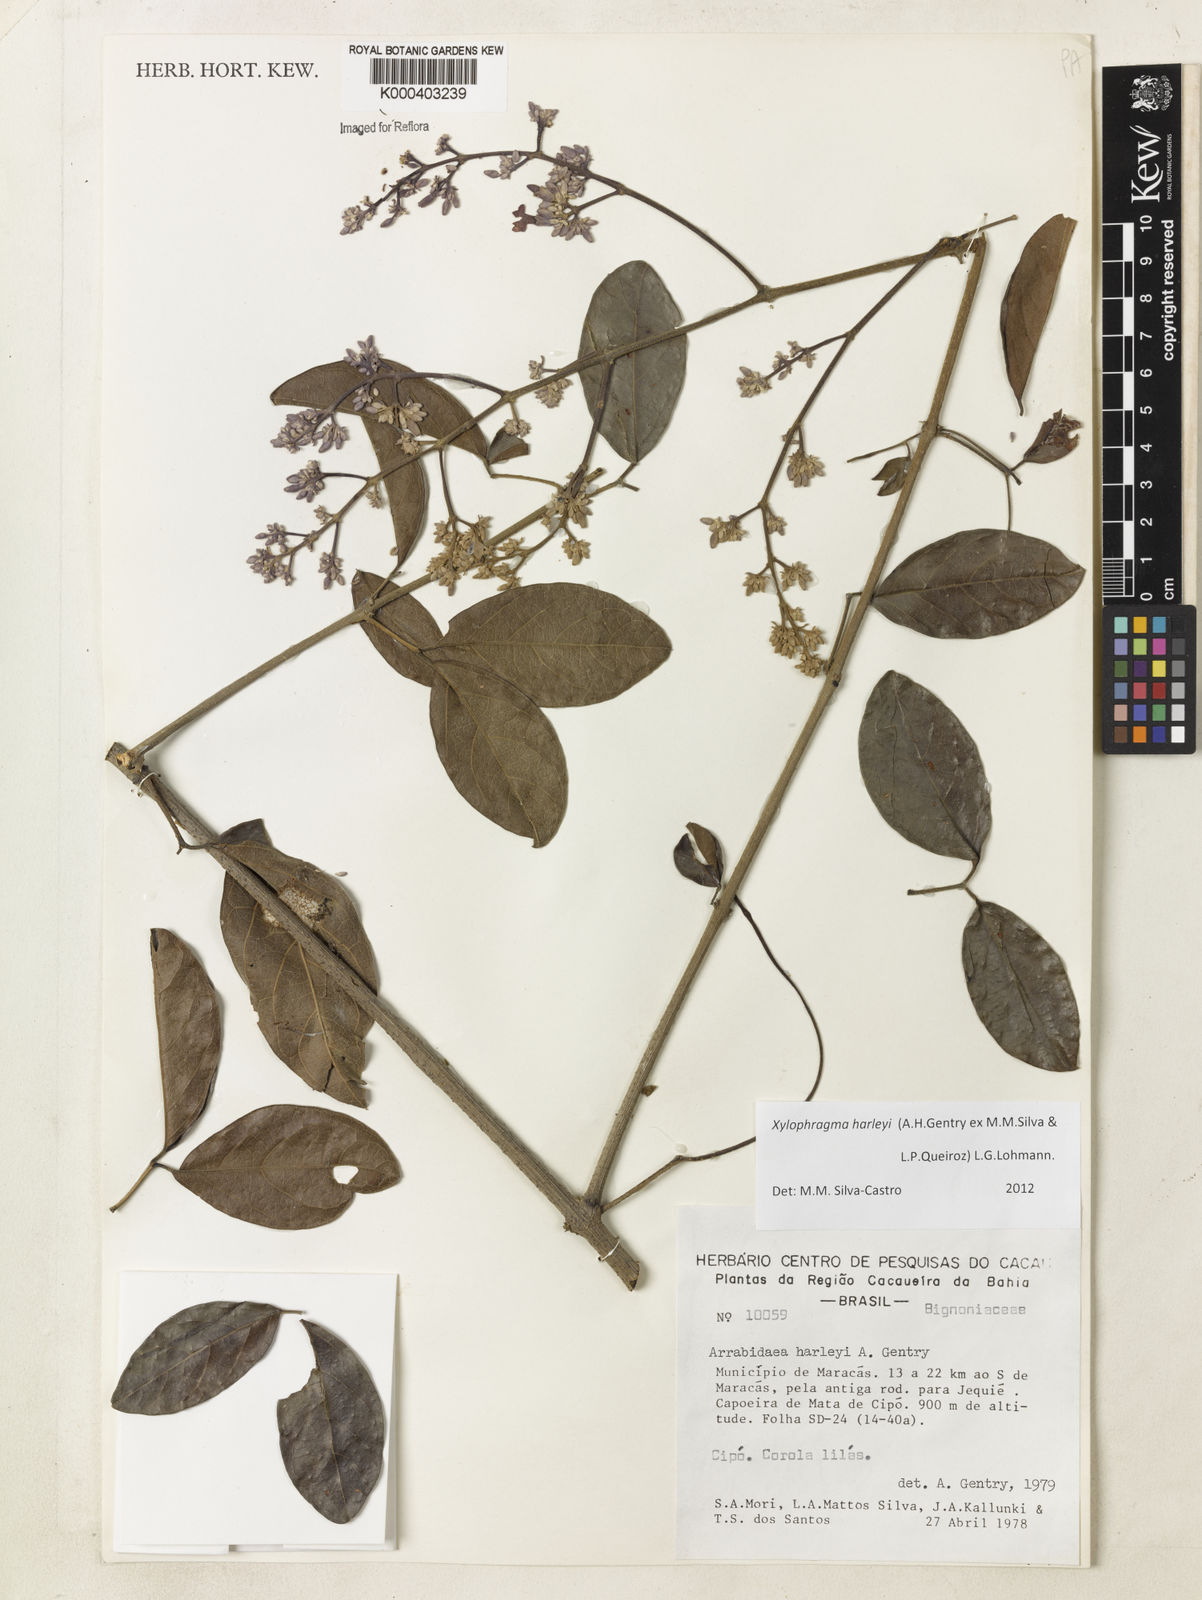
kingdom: Plantae
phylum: Tracheophyta
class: Magnoliopsida
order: Lamiales
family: Bignoniaceae
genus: Xylophragma
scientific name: Xylophragma harleyi
